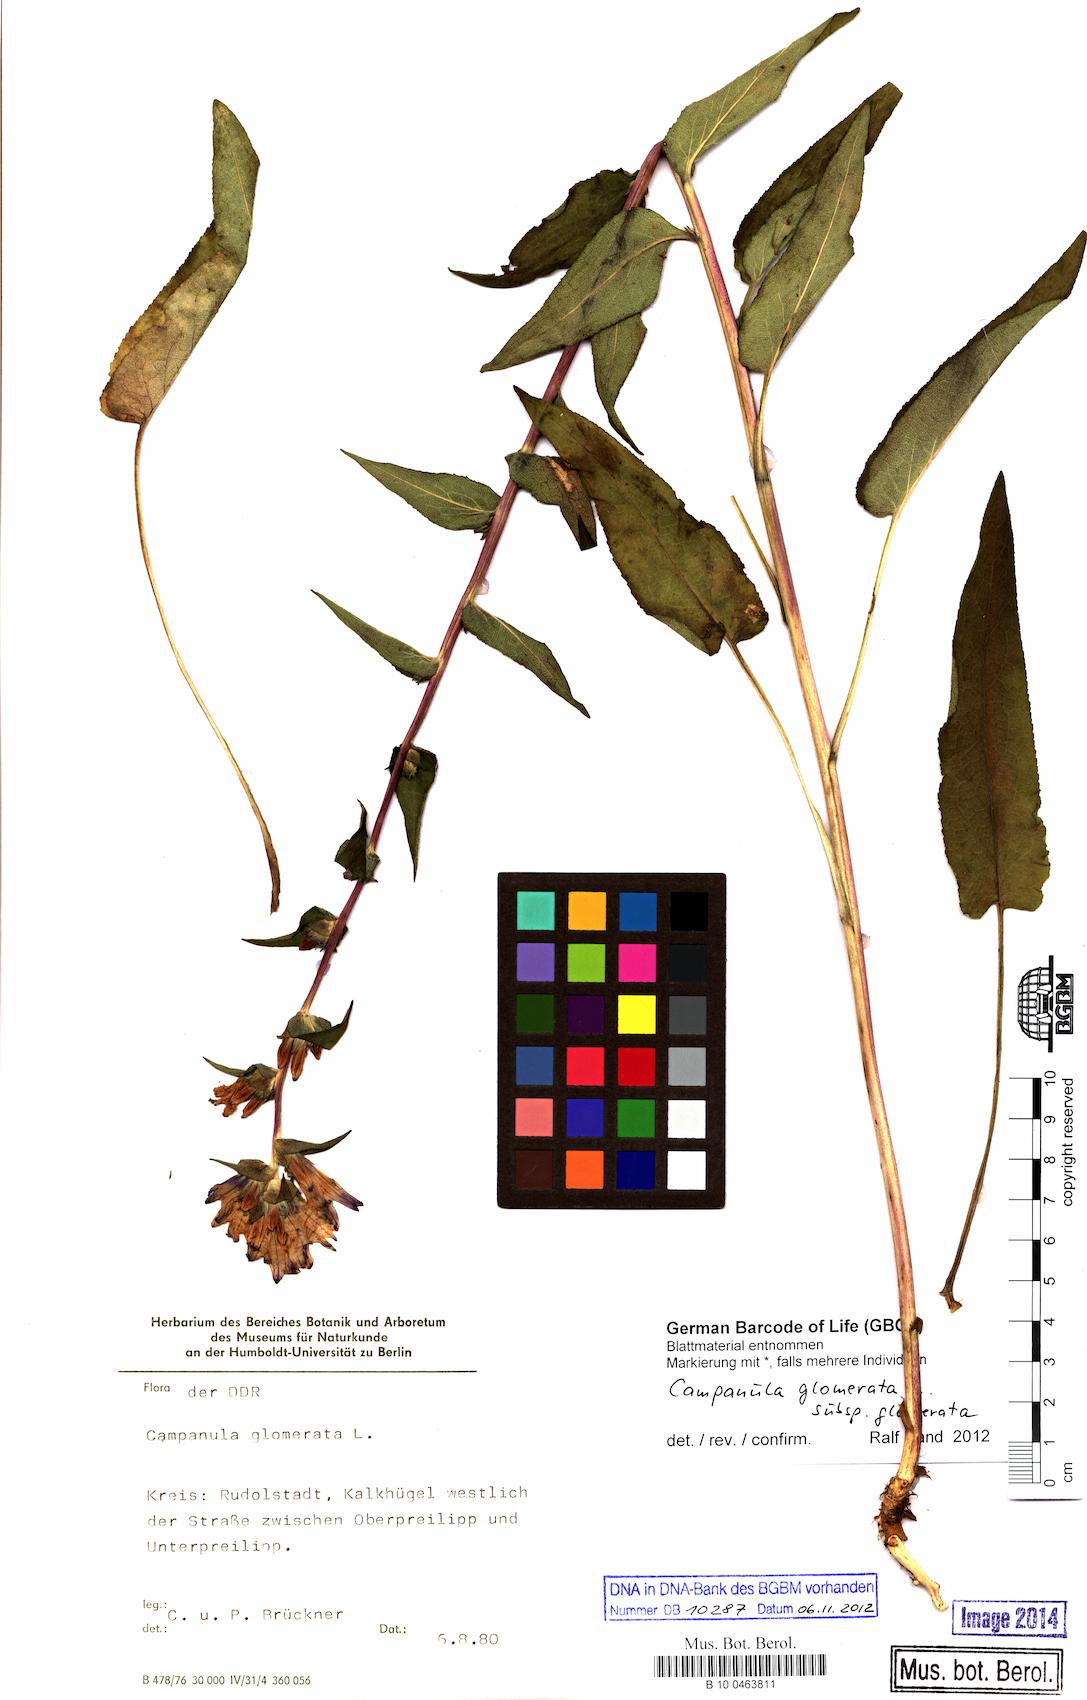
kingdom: Plantae
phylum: Tracheophyta
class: Magnoliopsida
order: Asterales
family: Campanulaceae
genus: Campanula
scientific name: Campanula glomerata
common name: Clustered bellflower
